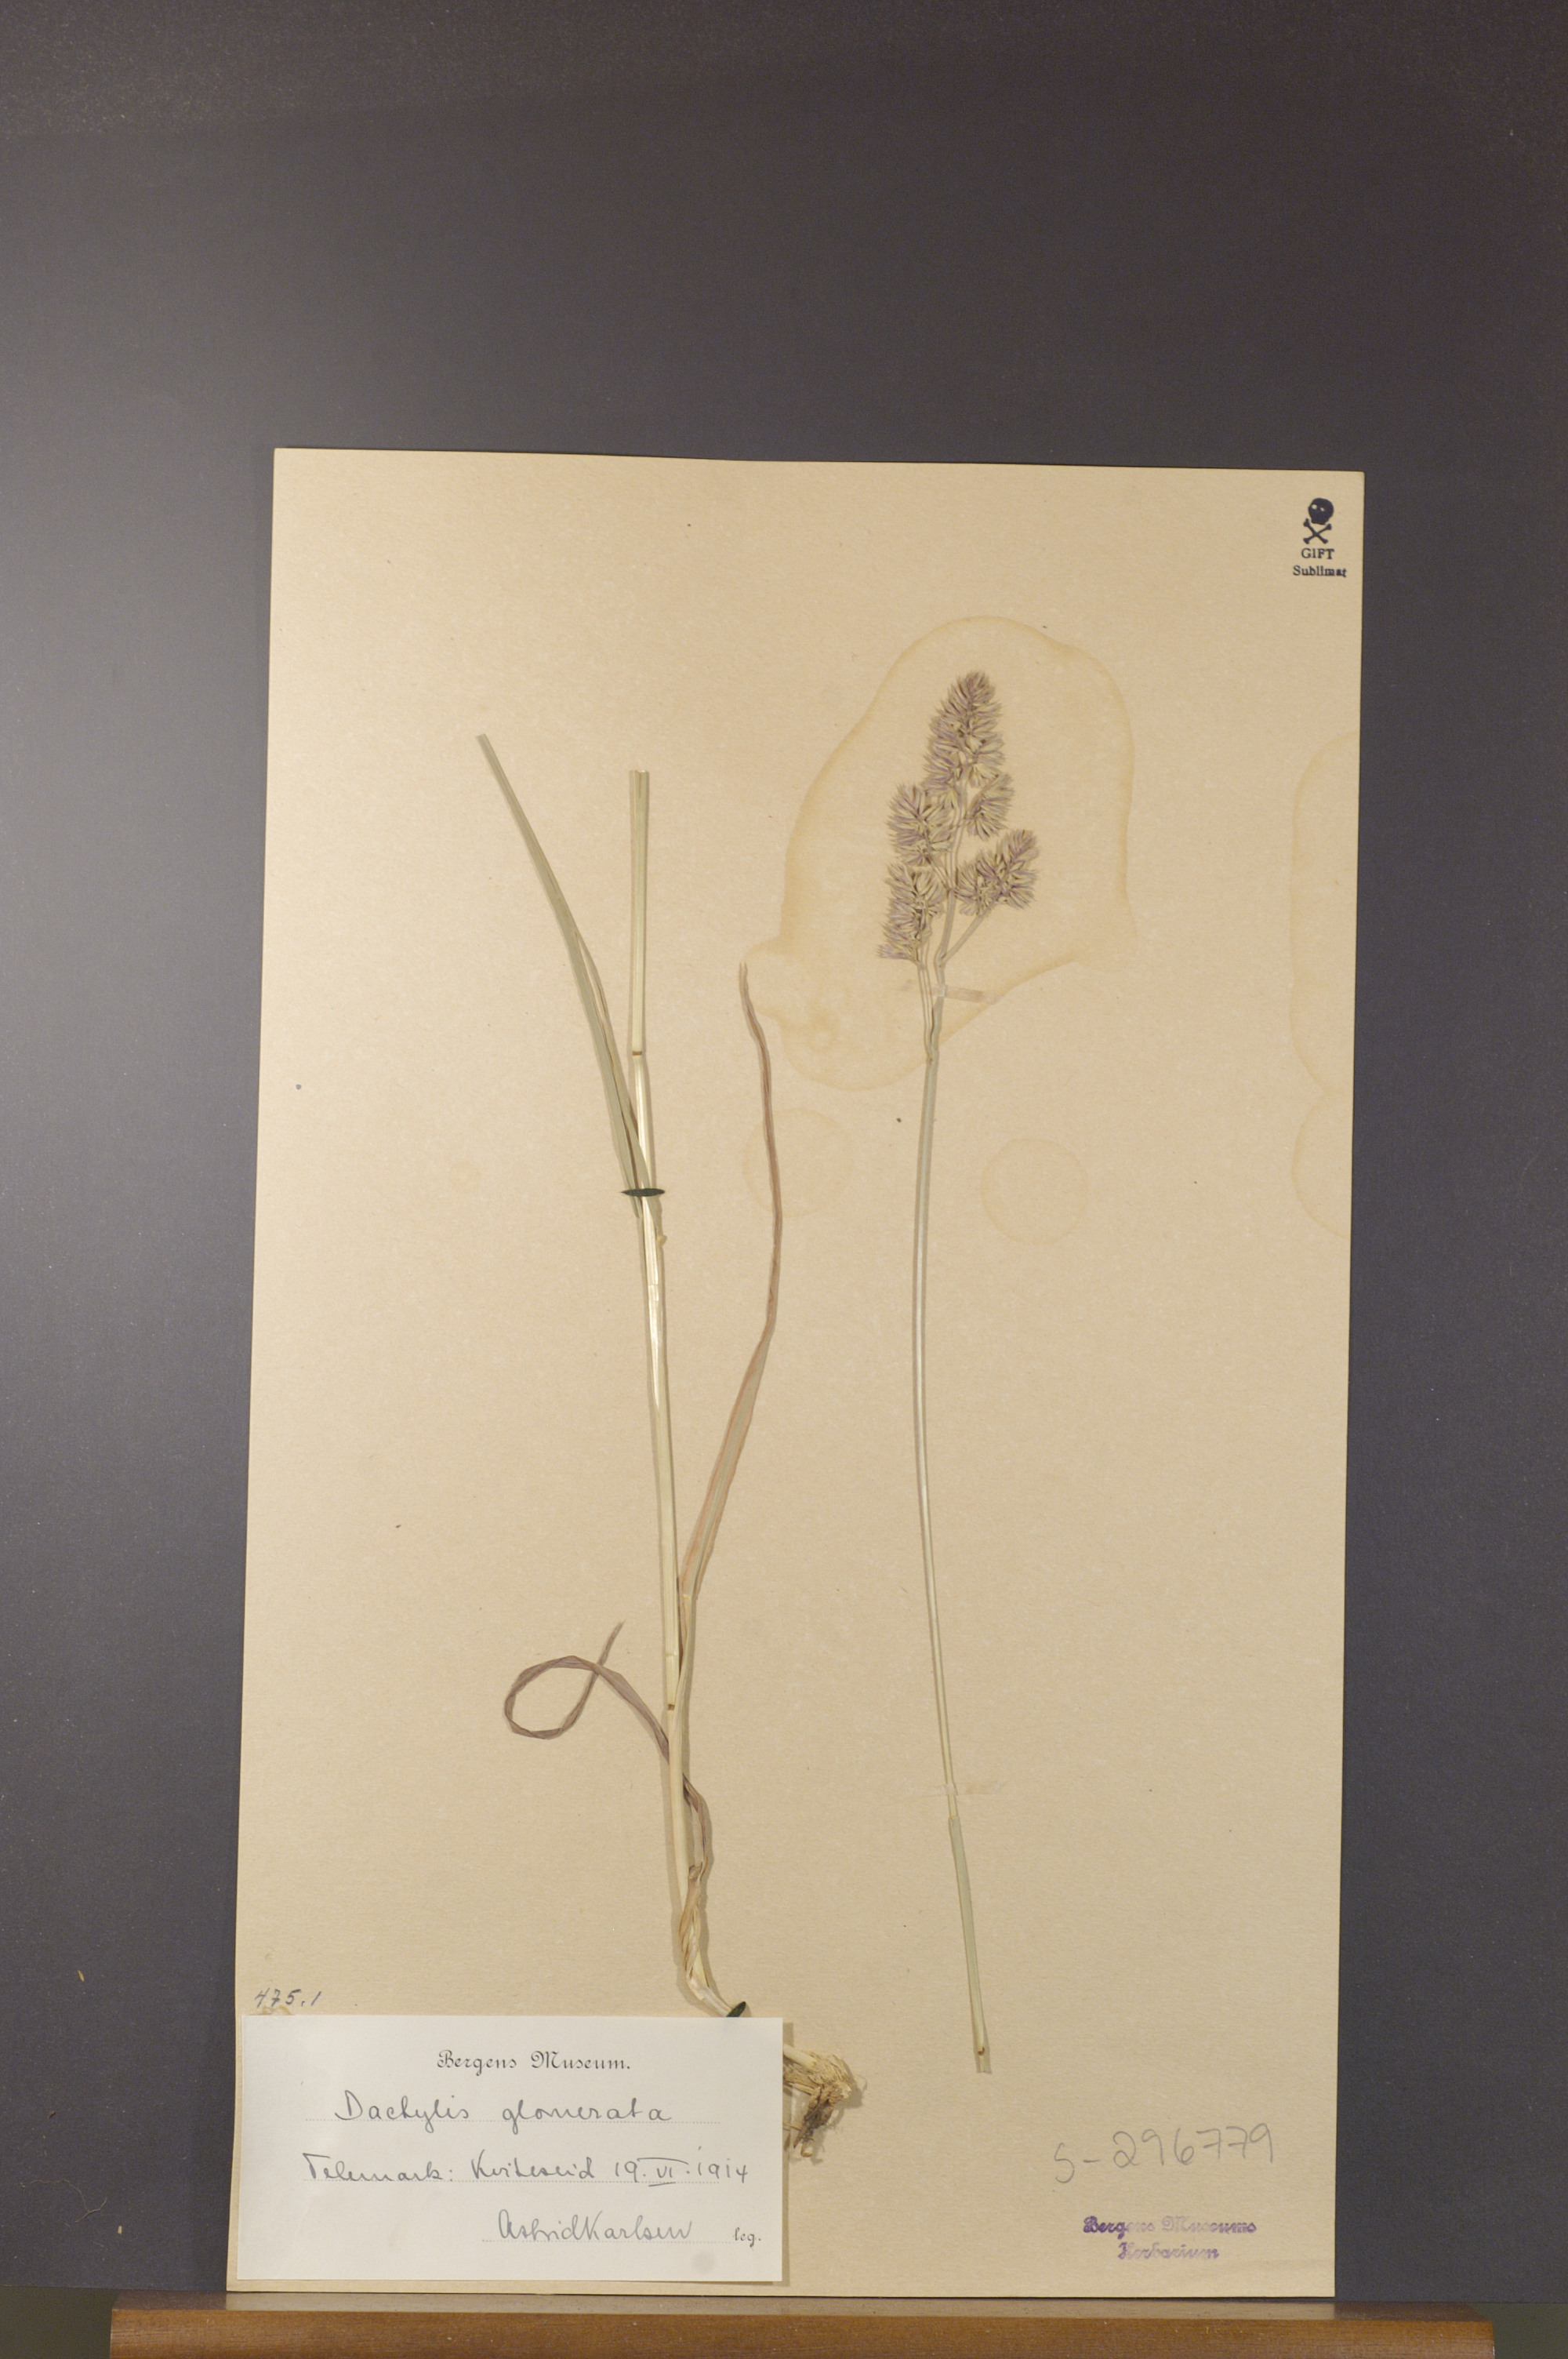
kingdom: Plantae
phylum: Tracheophyta
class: Liliopsida
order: Poales
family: Poaceae
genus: Dactylis
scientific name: Dactylis glomerata
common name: Orchardgrass
